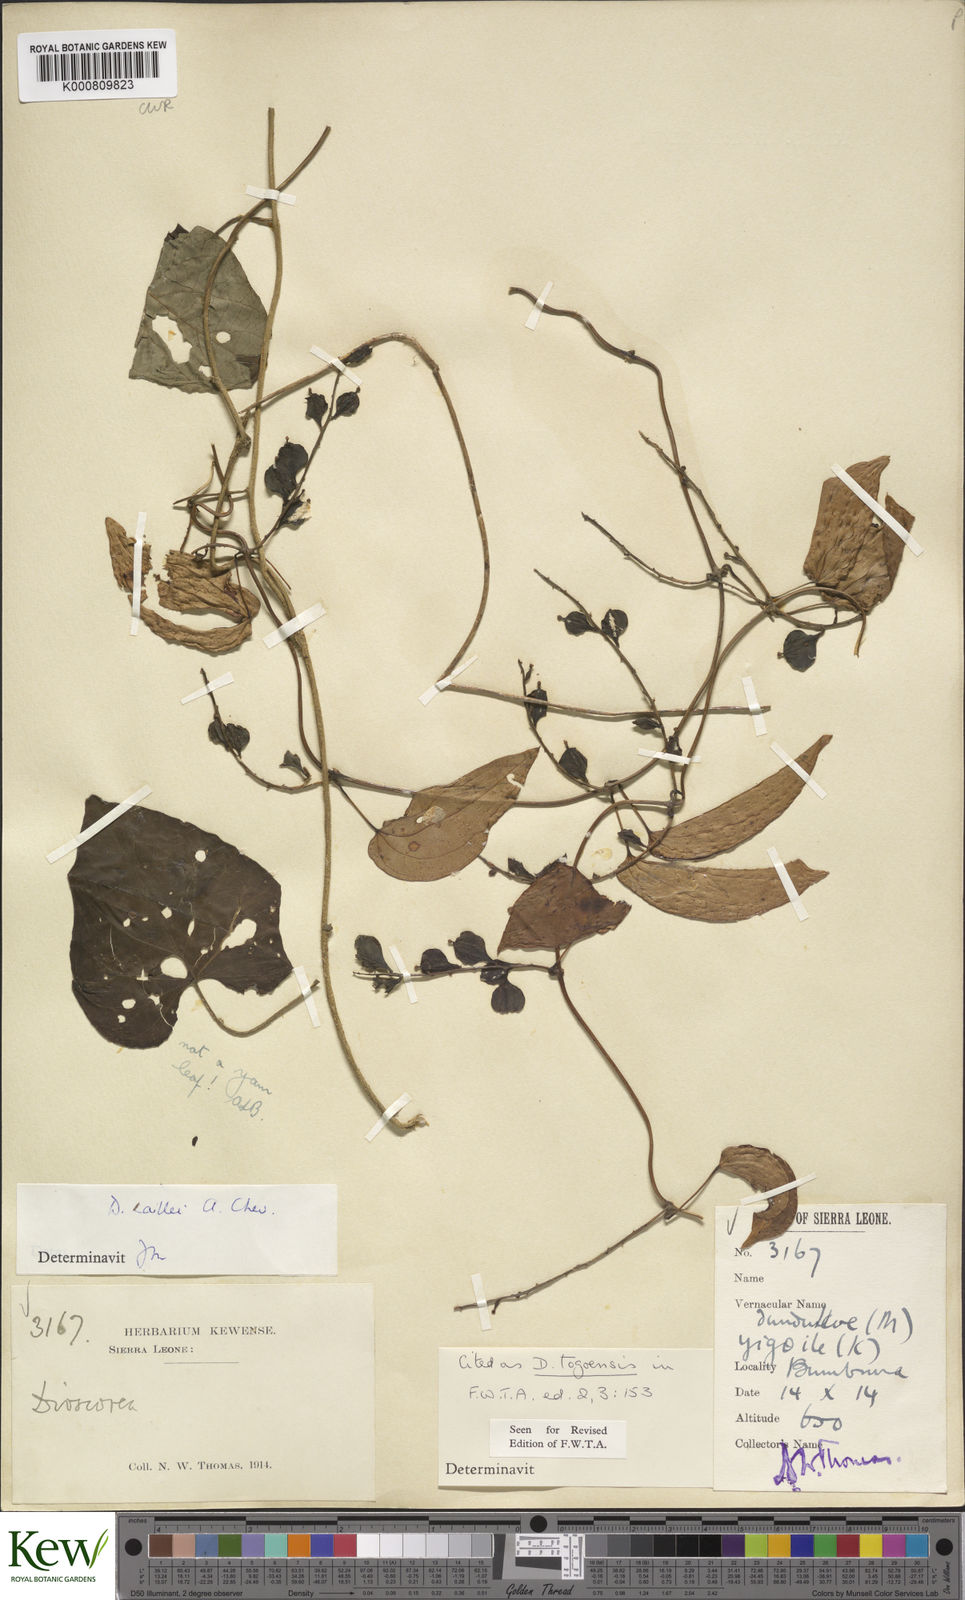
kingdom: Plantae
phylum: Tracheophyta
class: Liliopsida
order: Dioscoreales
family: Dioscoreaceae
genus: Dioscorea
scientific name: Dioscorea togoensis
